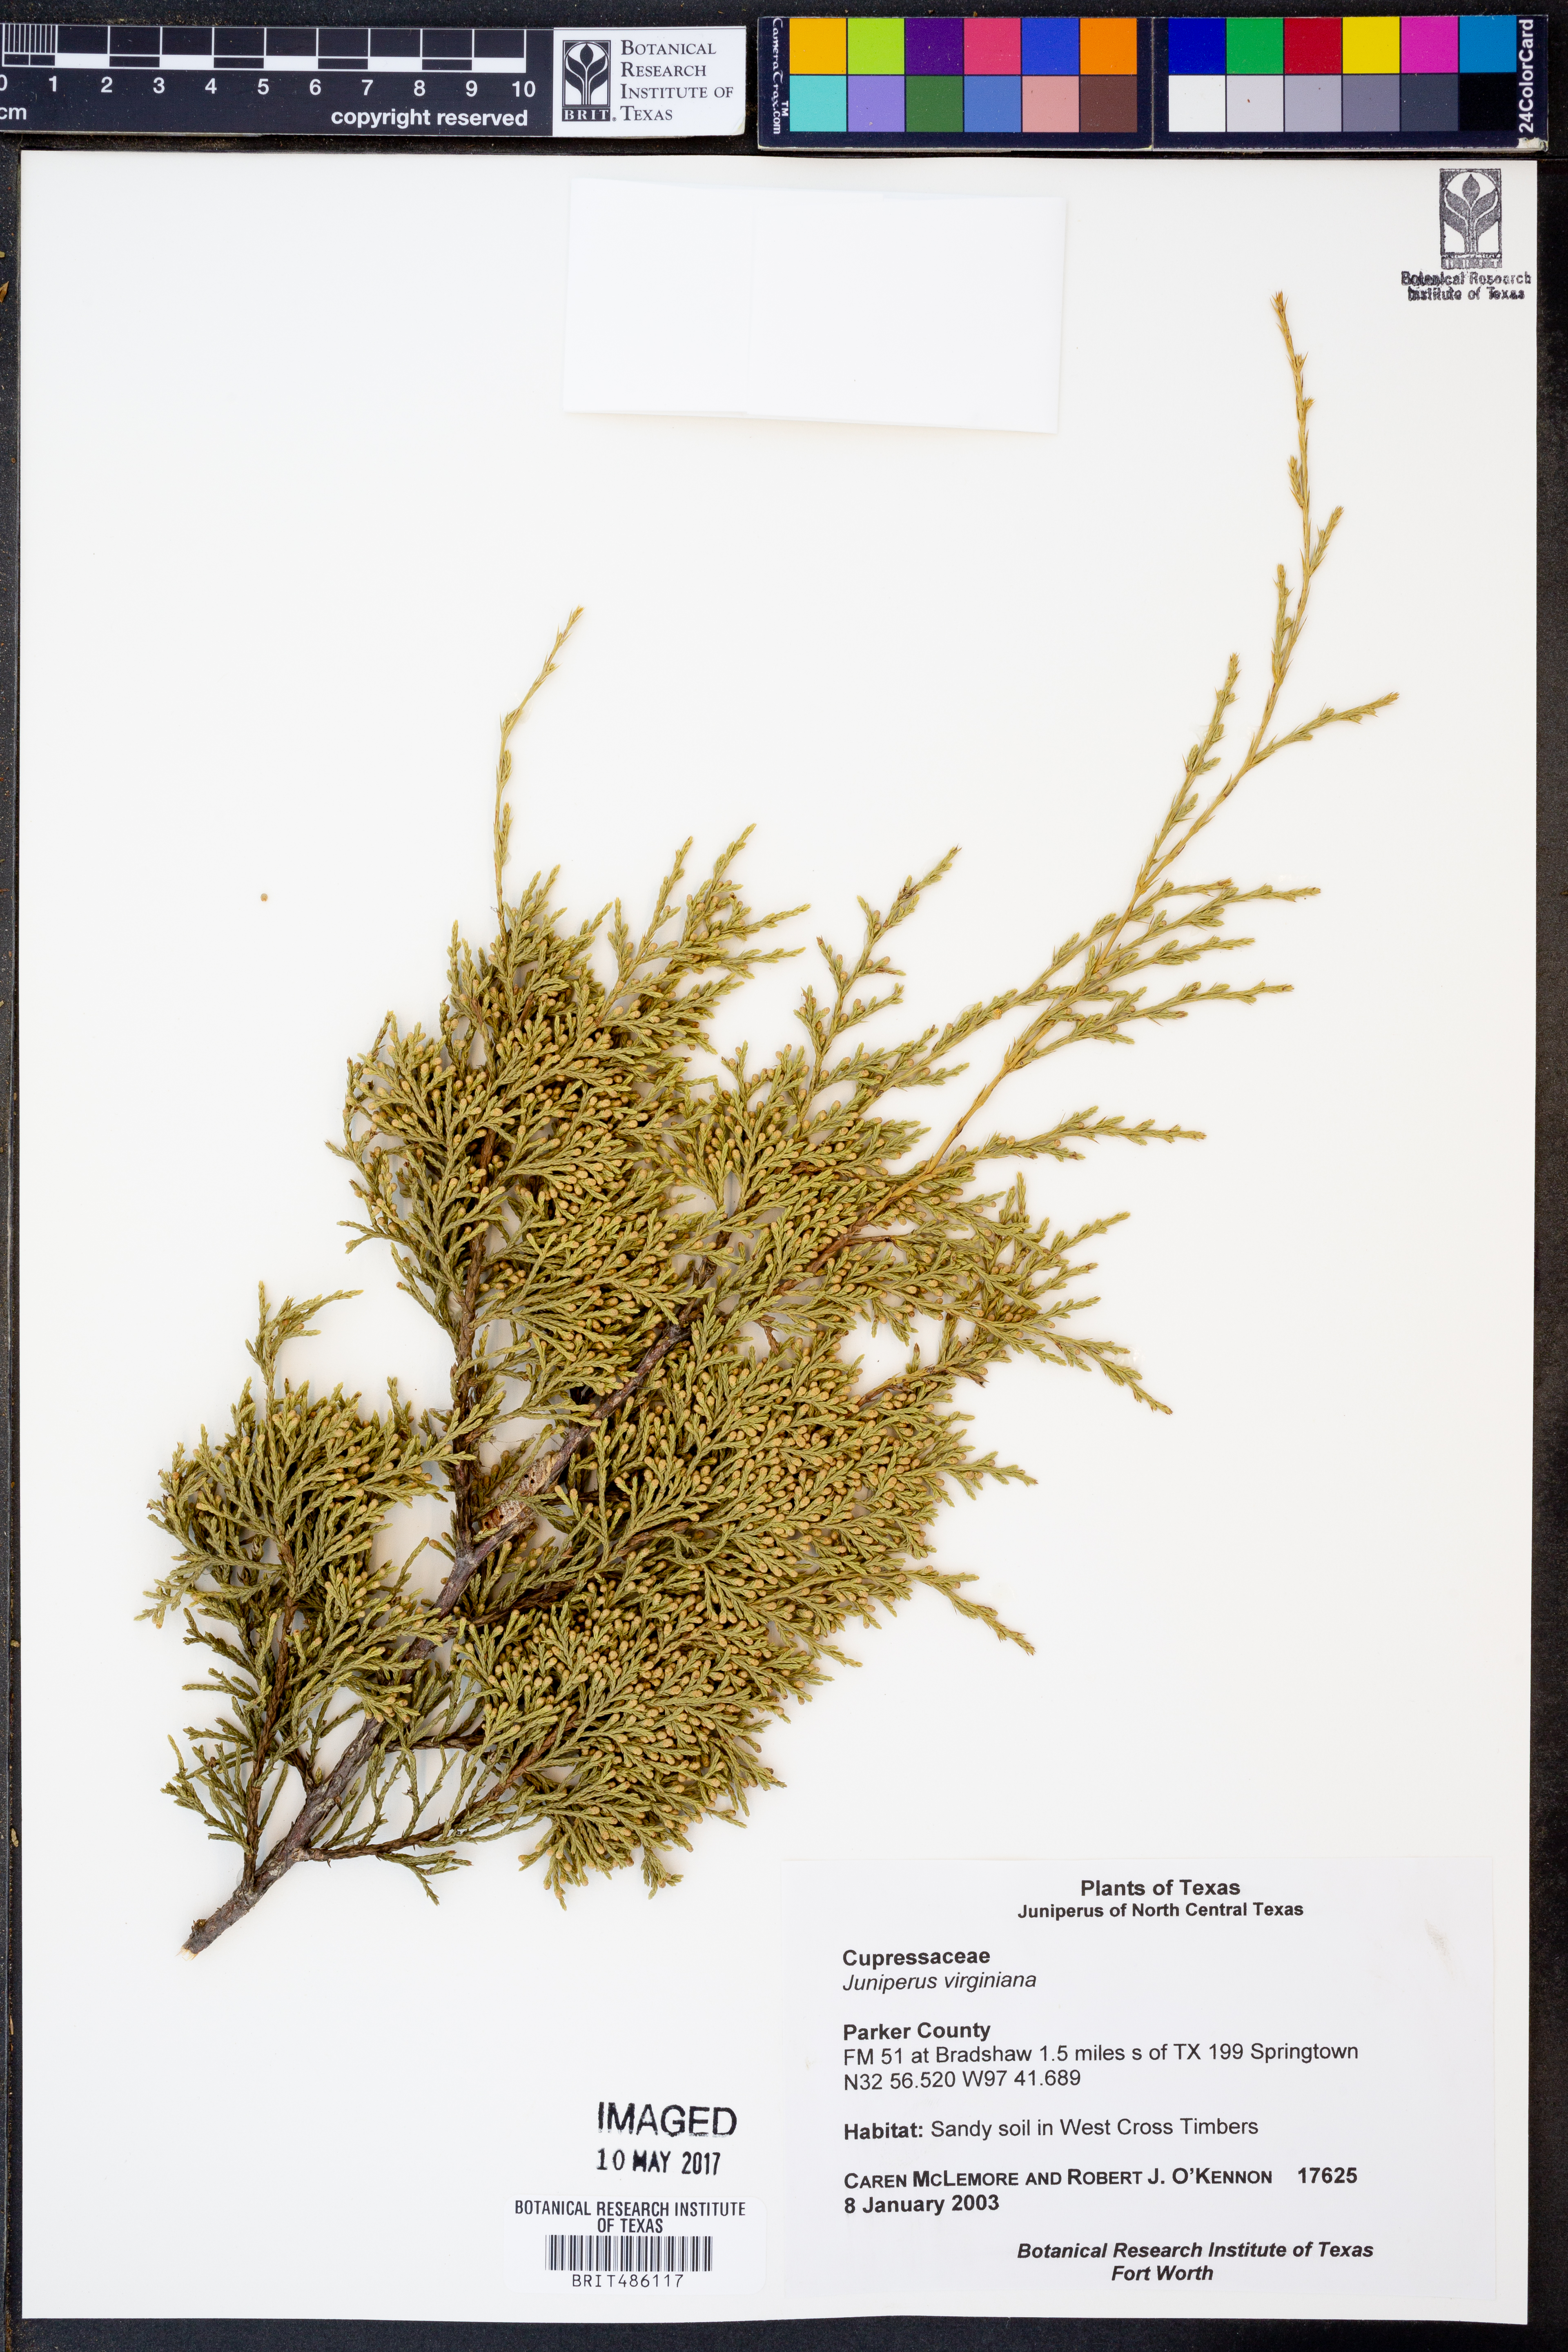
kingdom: Plantae
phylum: Tracheophyta
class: Pinopsida
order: Pinales
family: Cupressaceae
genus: Juniperus
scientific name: Juniperus virginiana
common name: Red juniper
